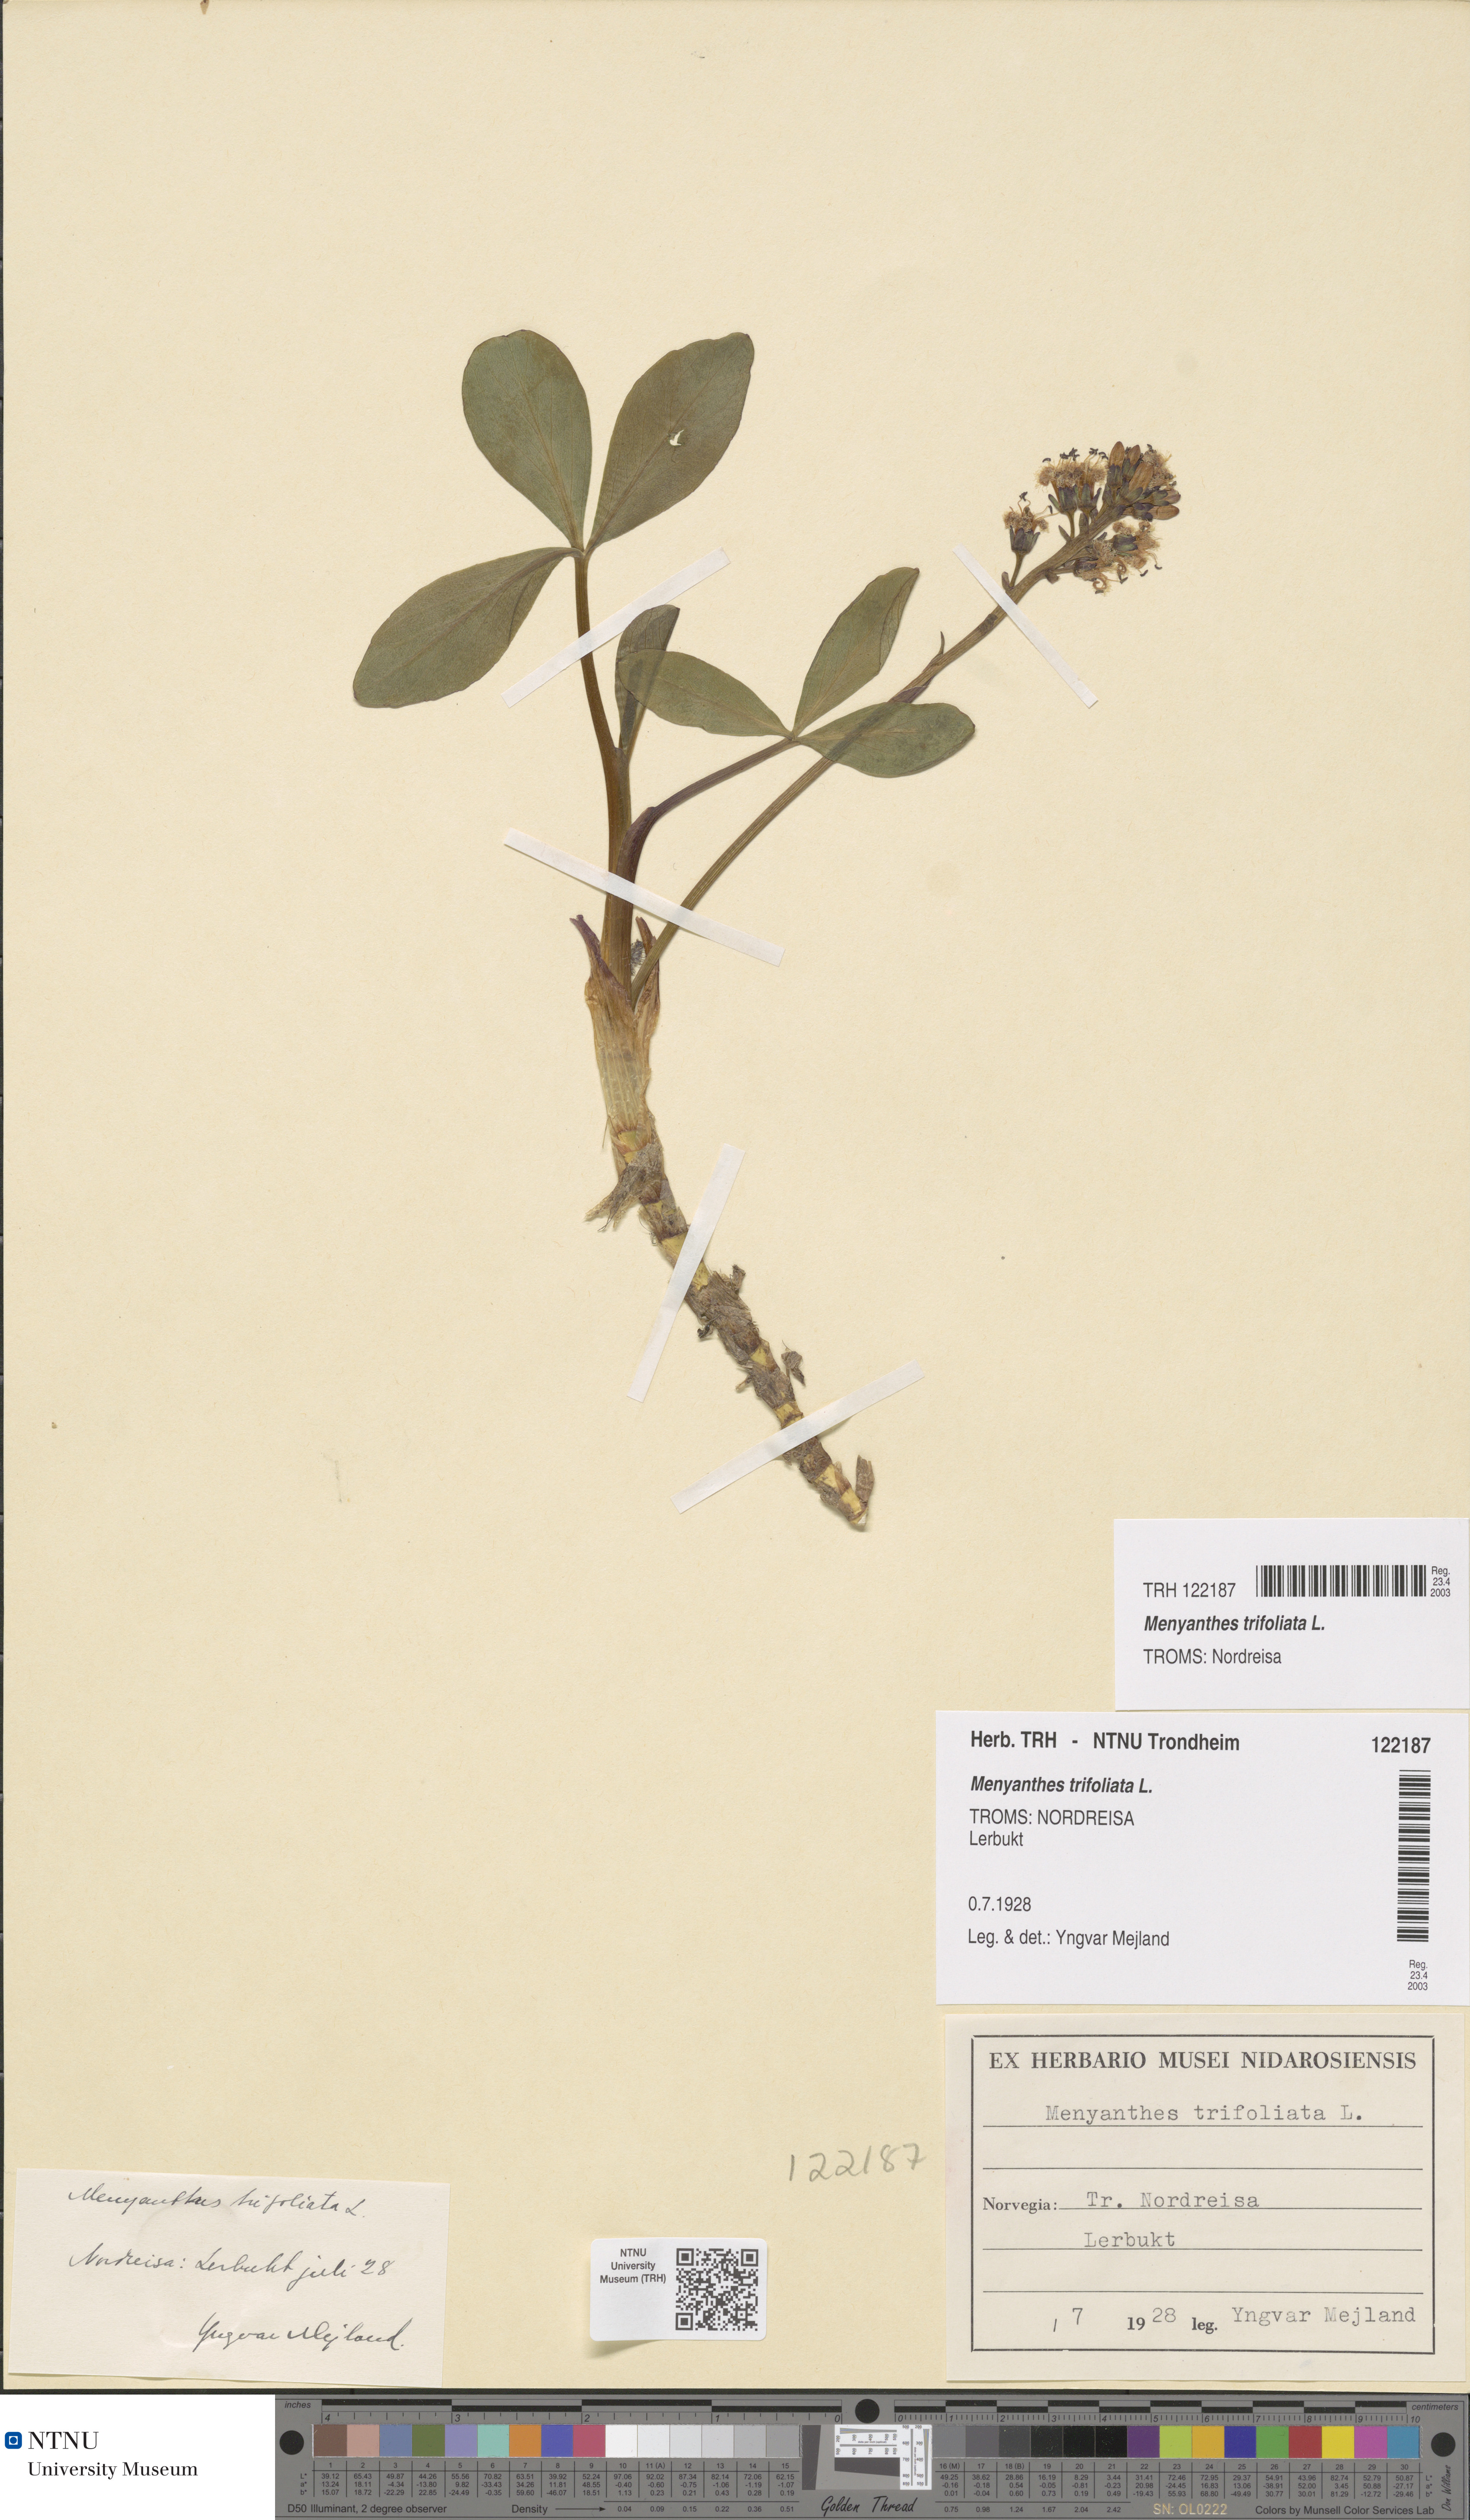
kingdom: Plantae
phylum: Tracheophyta
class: Magnoliopsida
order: Asterales
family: Menyanthaceae
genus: Menyanthes
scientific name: Menyanthes trifoliata
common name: Bogbean
